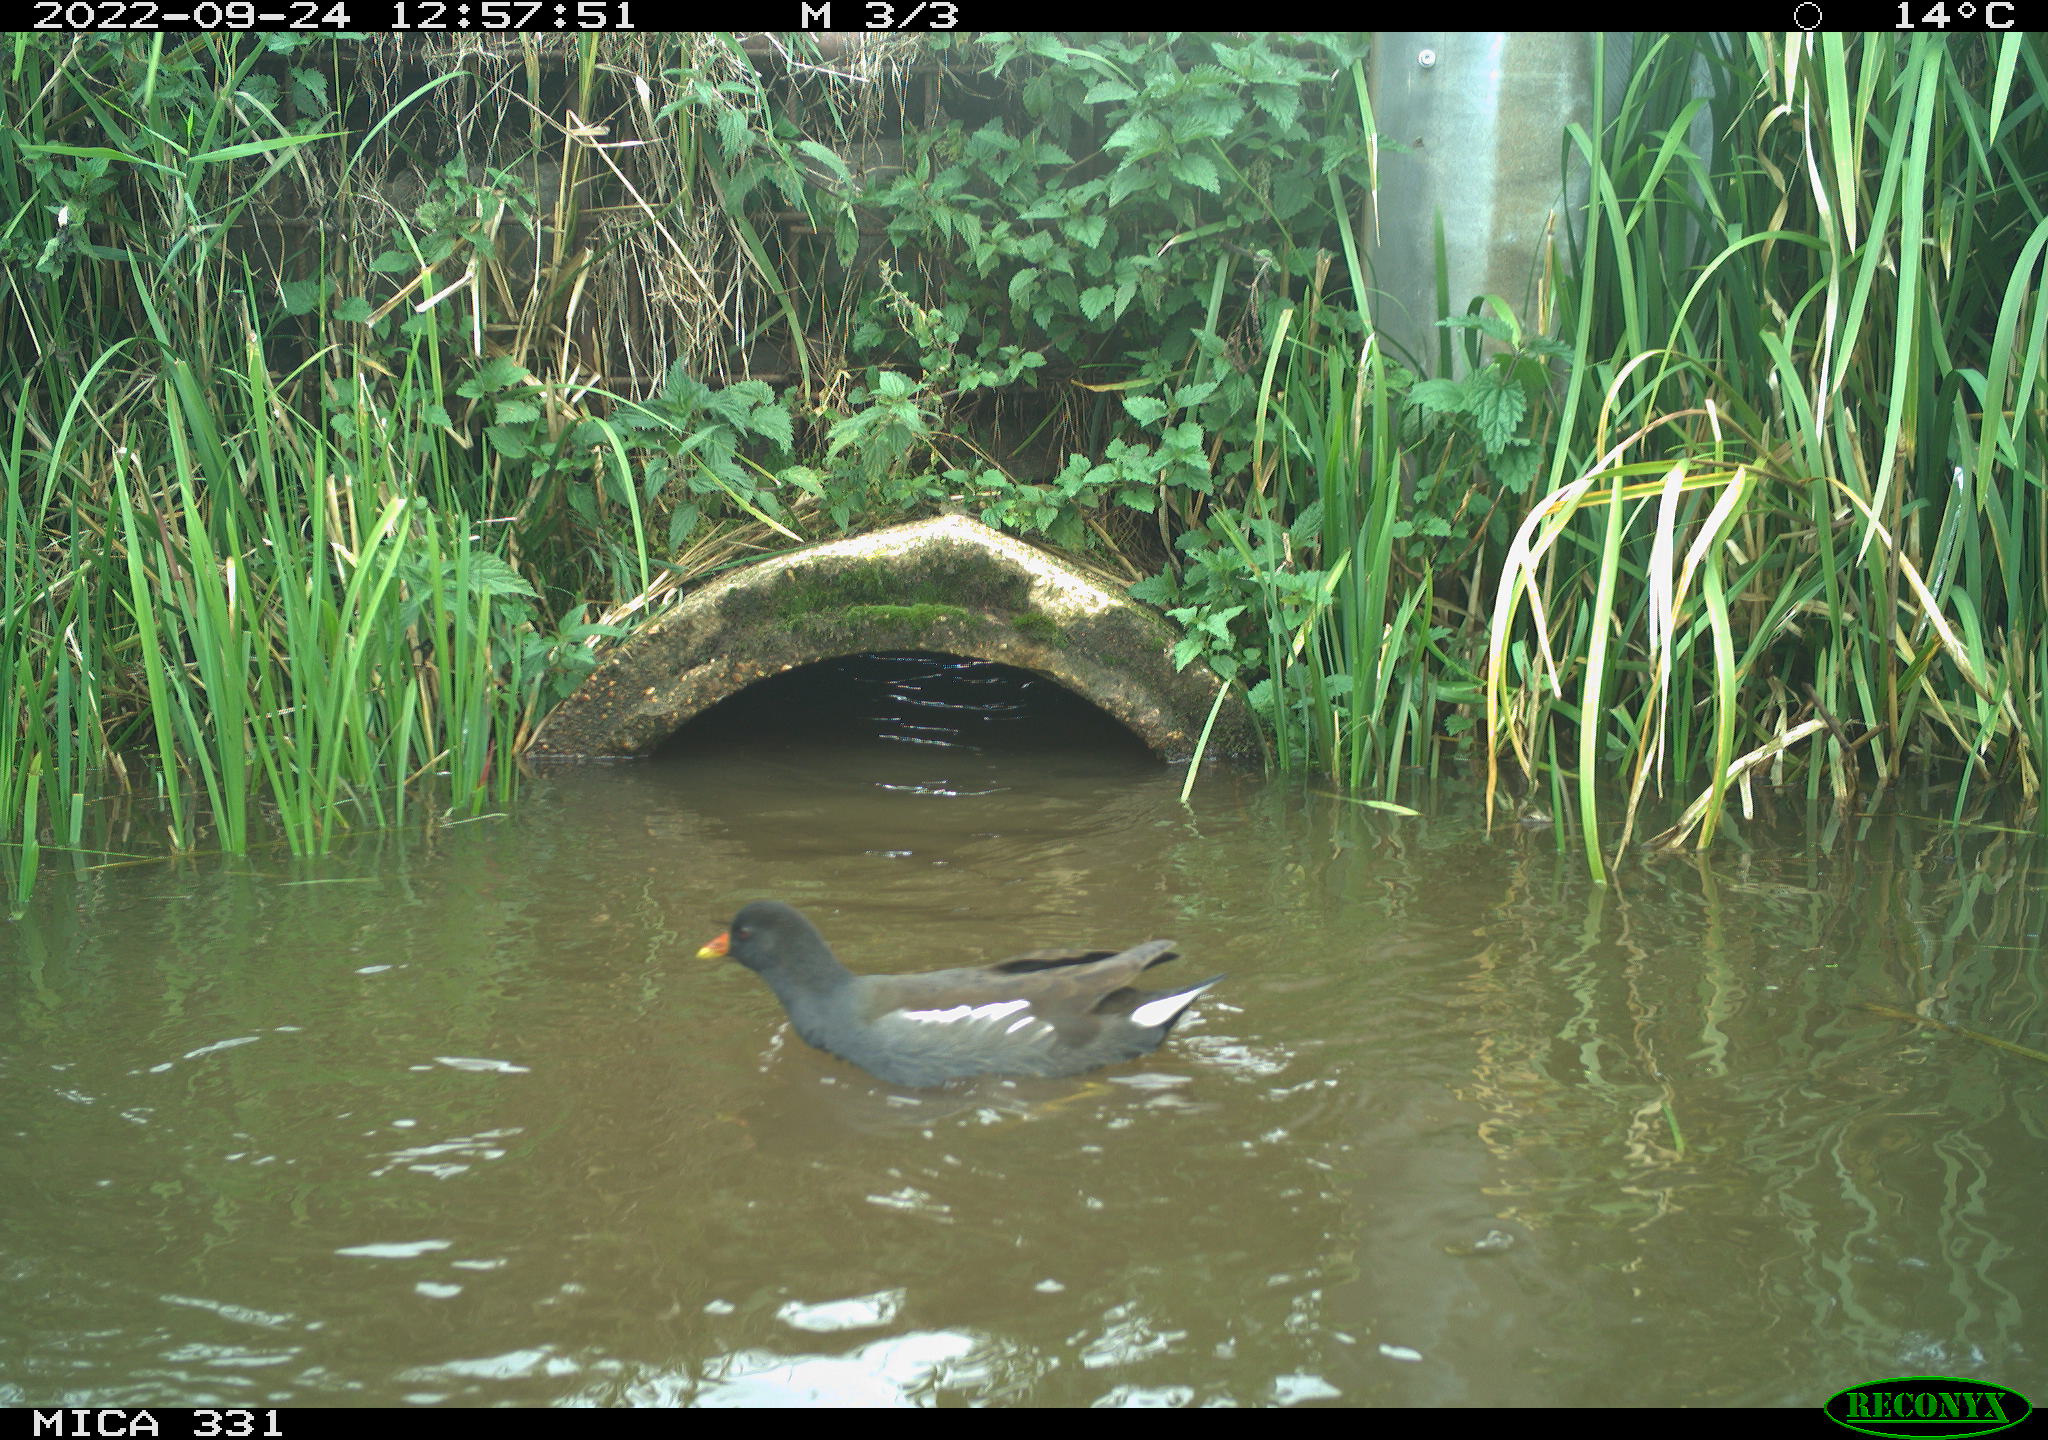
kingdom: Animalia
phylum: Chordata
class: Aves
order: Gruiformes
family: Rallidae
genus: Gallinula
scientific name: Gallinula chloropus
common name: Common moorhen
